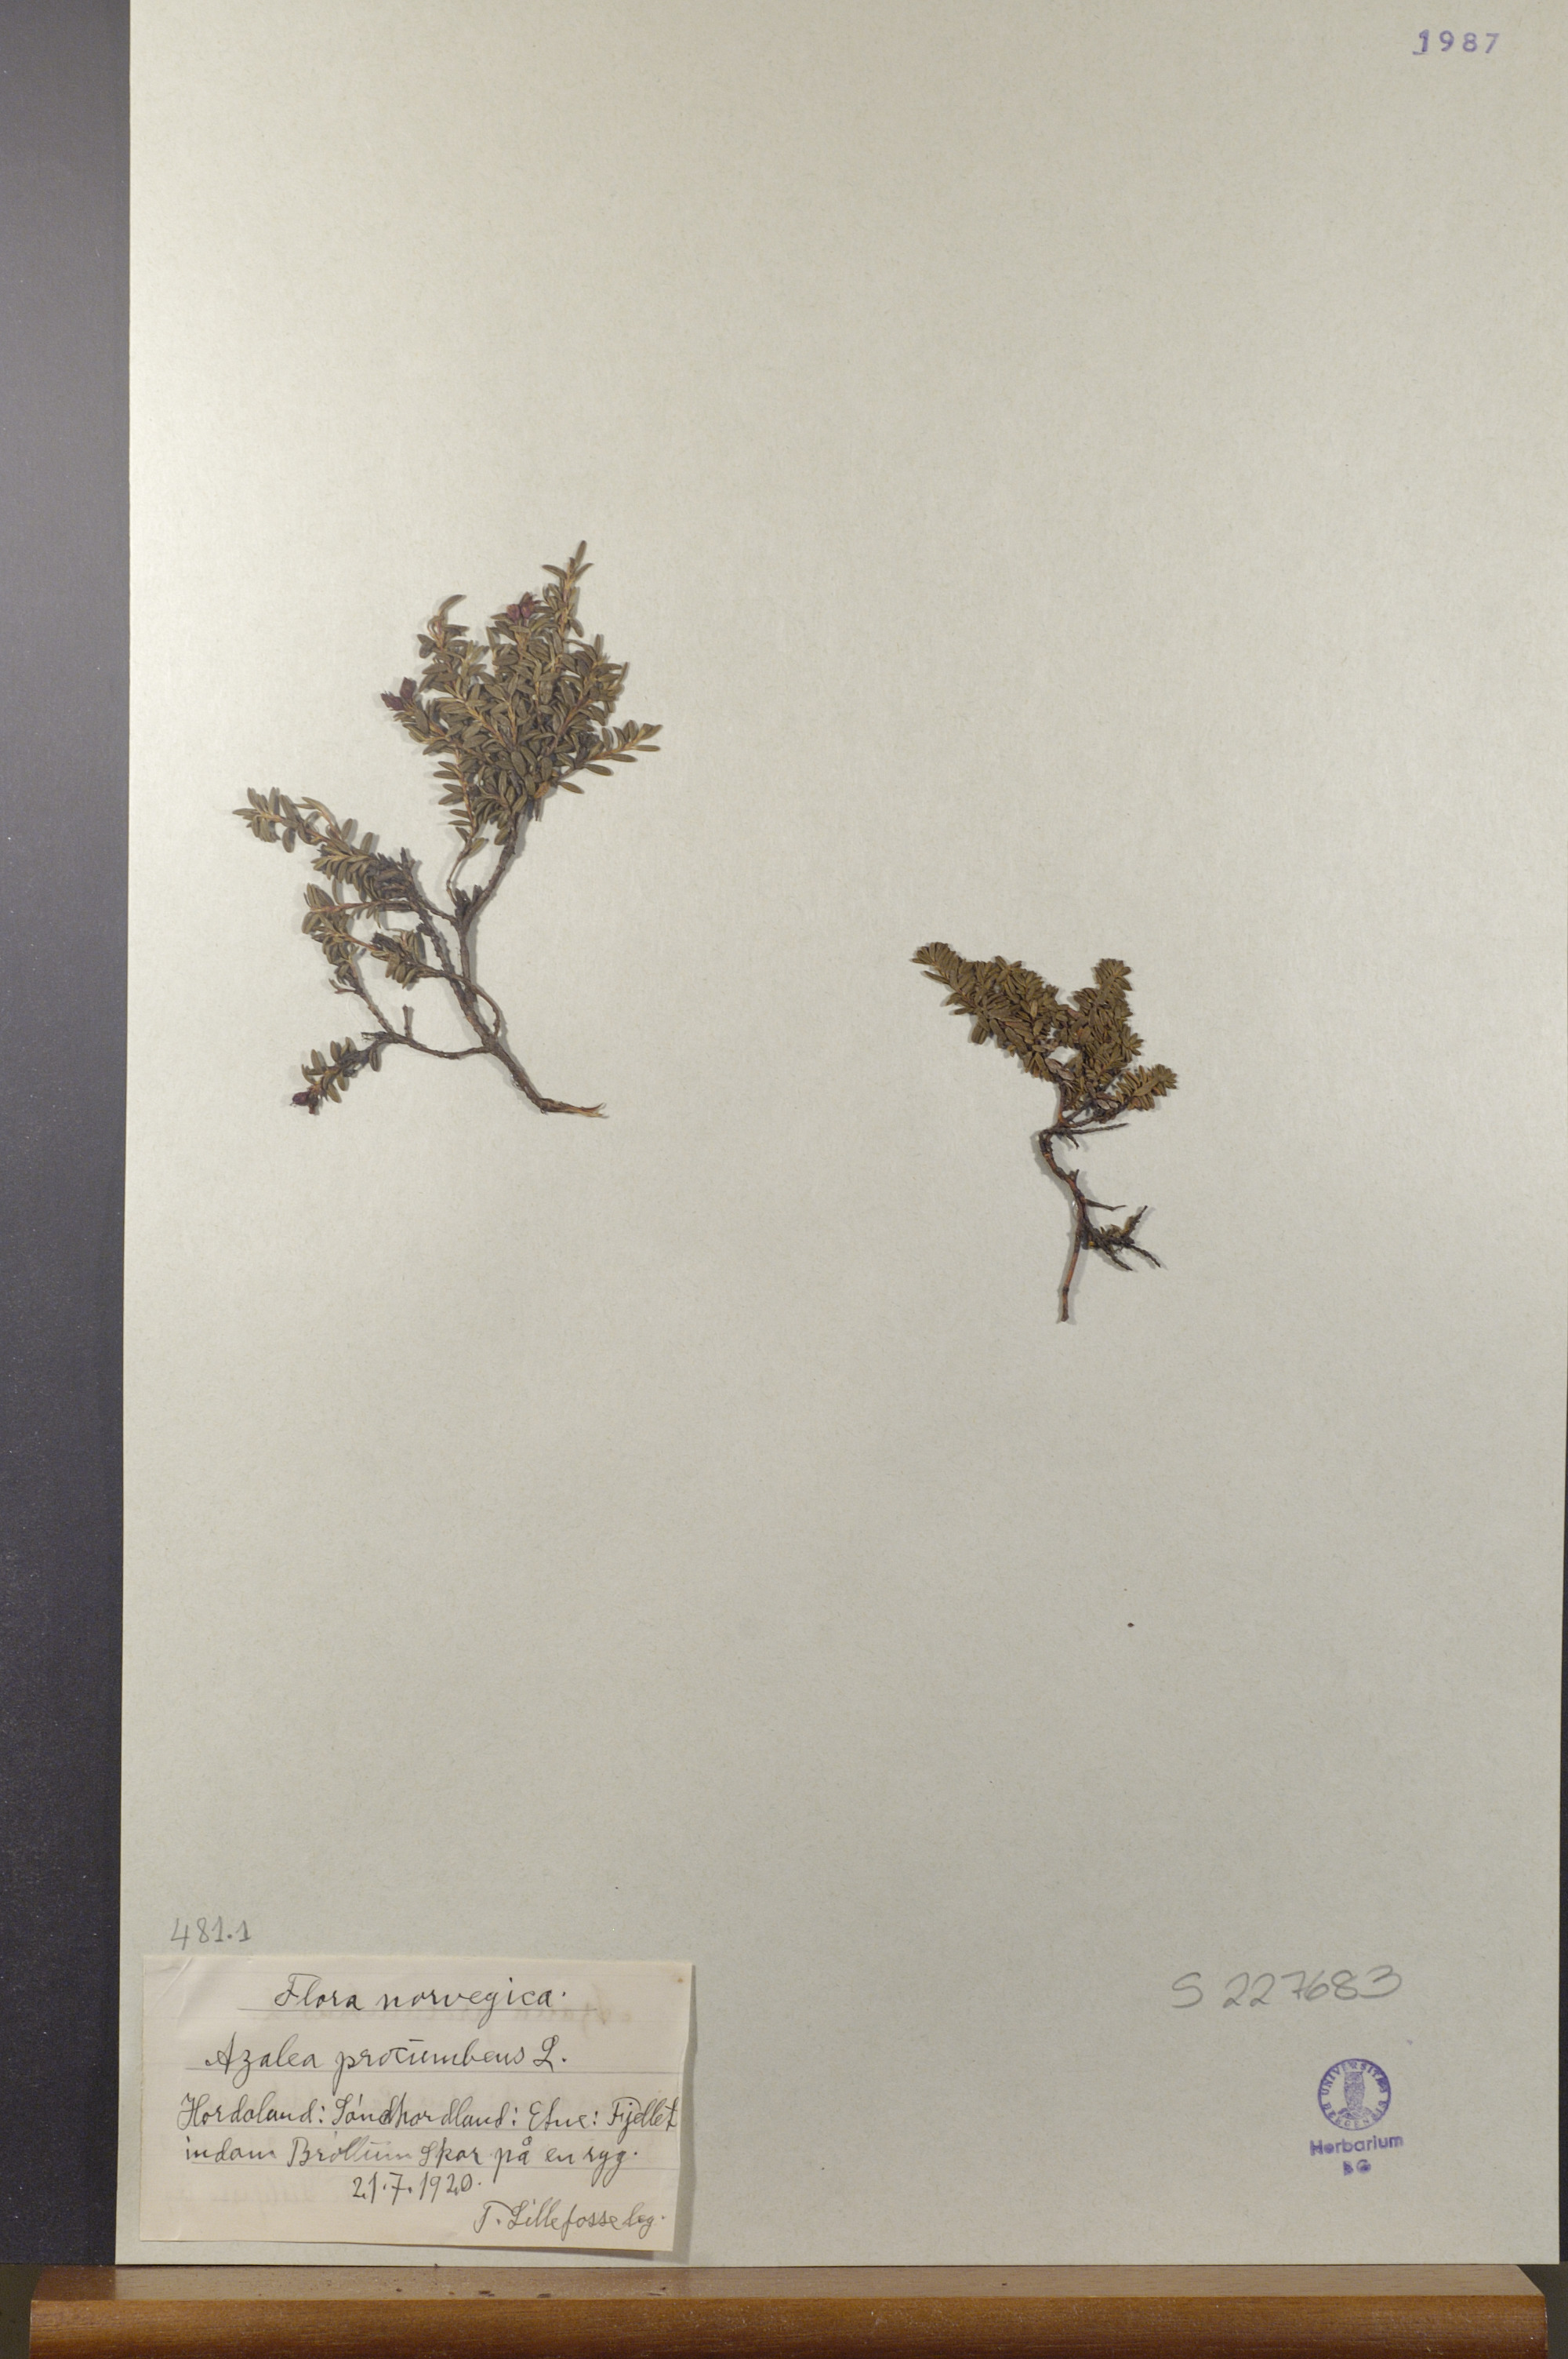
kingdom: Plantae
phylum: Tracheophyta
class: Magnoliopsida
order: Ericales
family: Ericaceae
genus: Kalmia
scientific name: Kalmia procumbens
